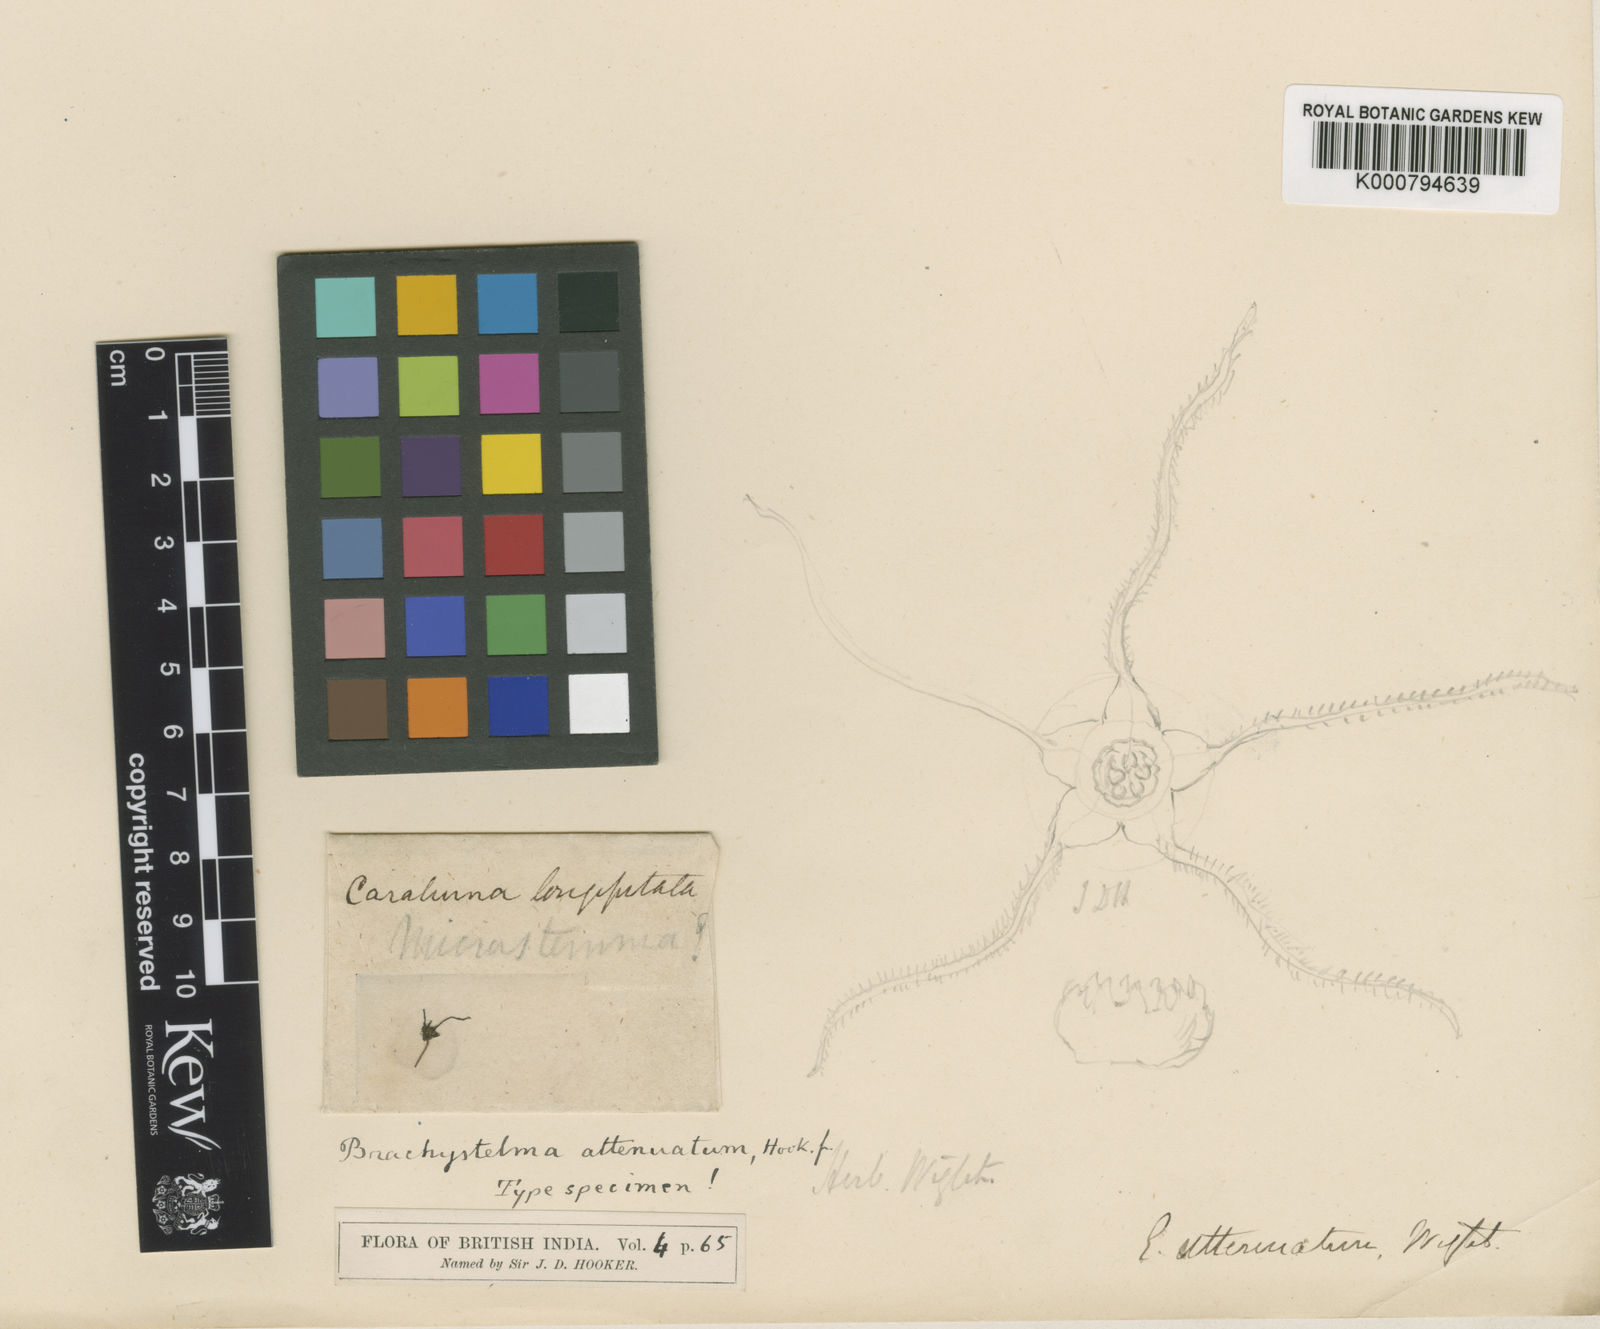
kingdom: Plantae
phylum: Tracheophyta
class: Magnoliopsida
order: Gentianales
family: Apocynaceae
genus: Ceropegia
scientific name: Ceropegia attenuatula
